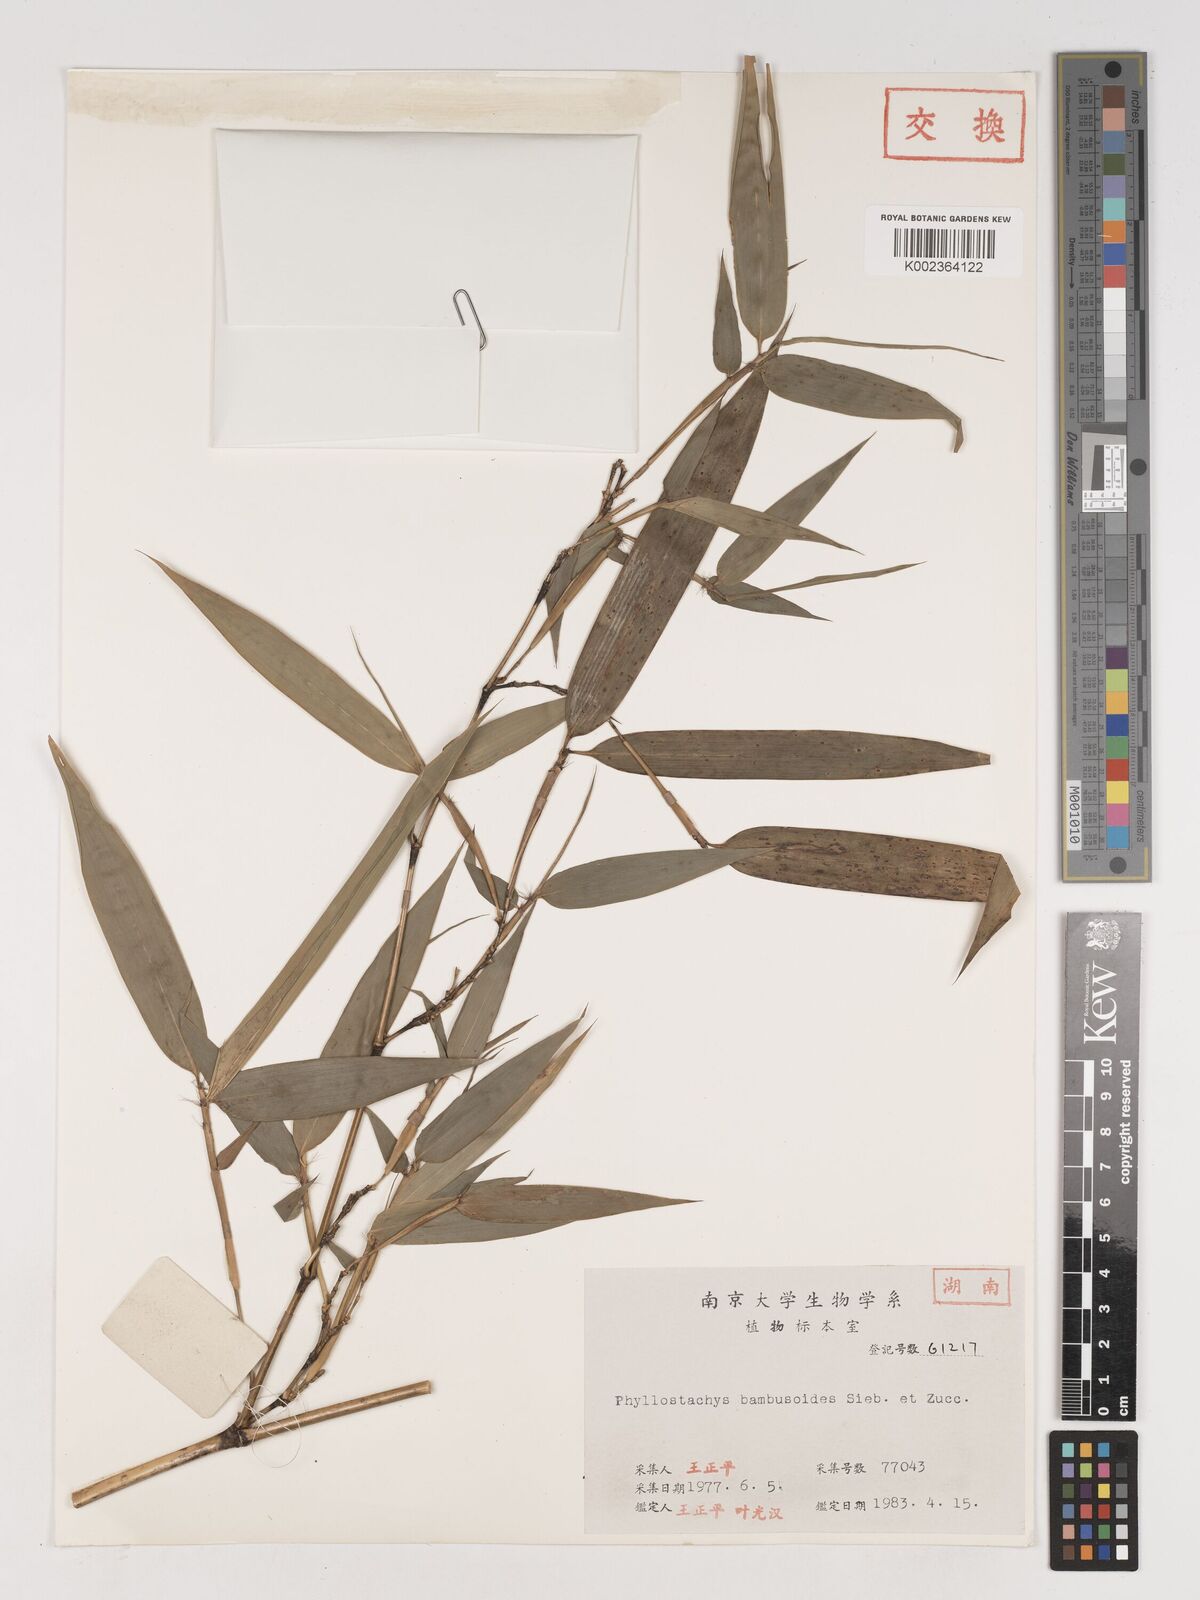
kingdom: Plantae
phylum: Tracheophyta
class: Liliopsida
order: Poales
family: Poaceae
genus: Phyllostachys
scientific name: Phyllostachys reticulata
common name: Bamboo
